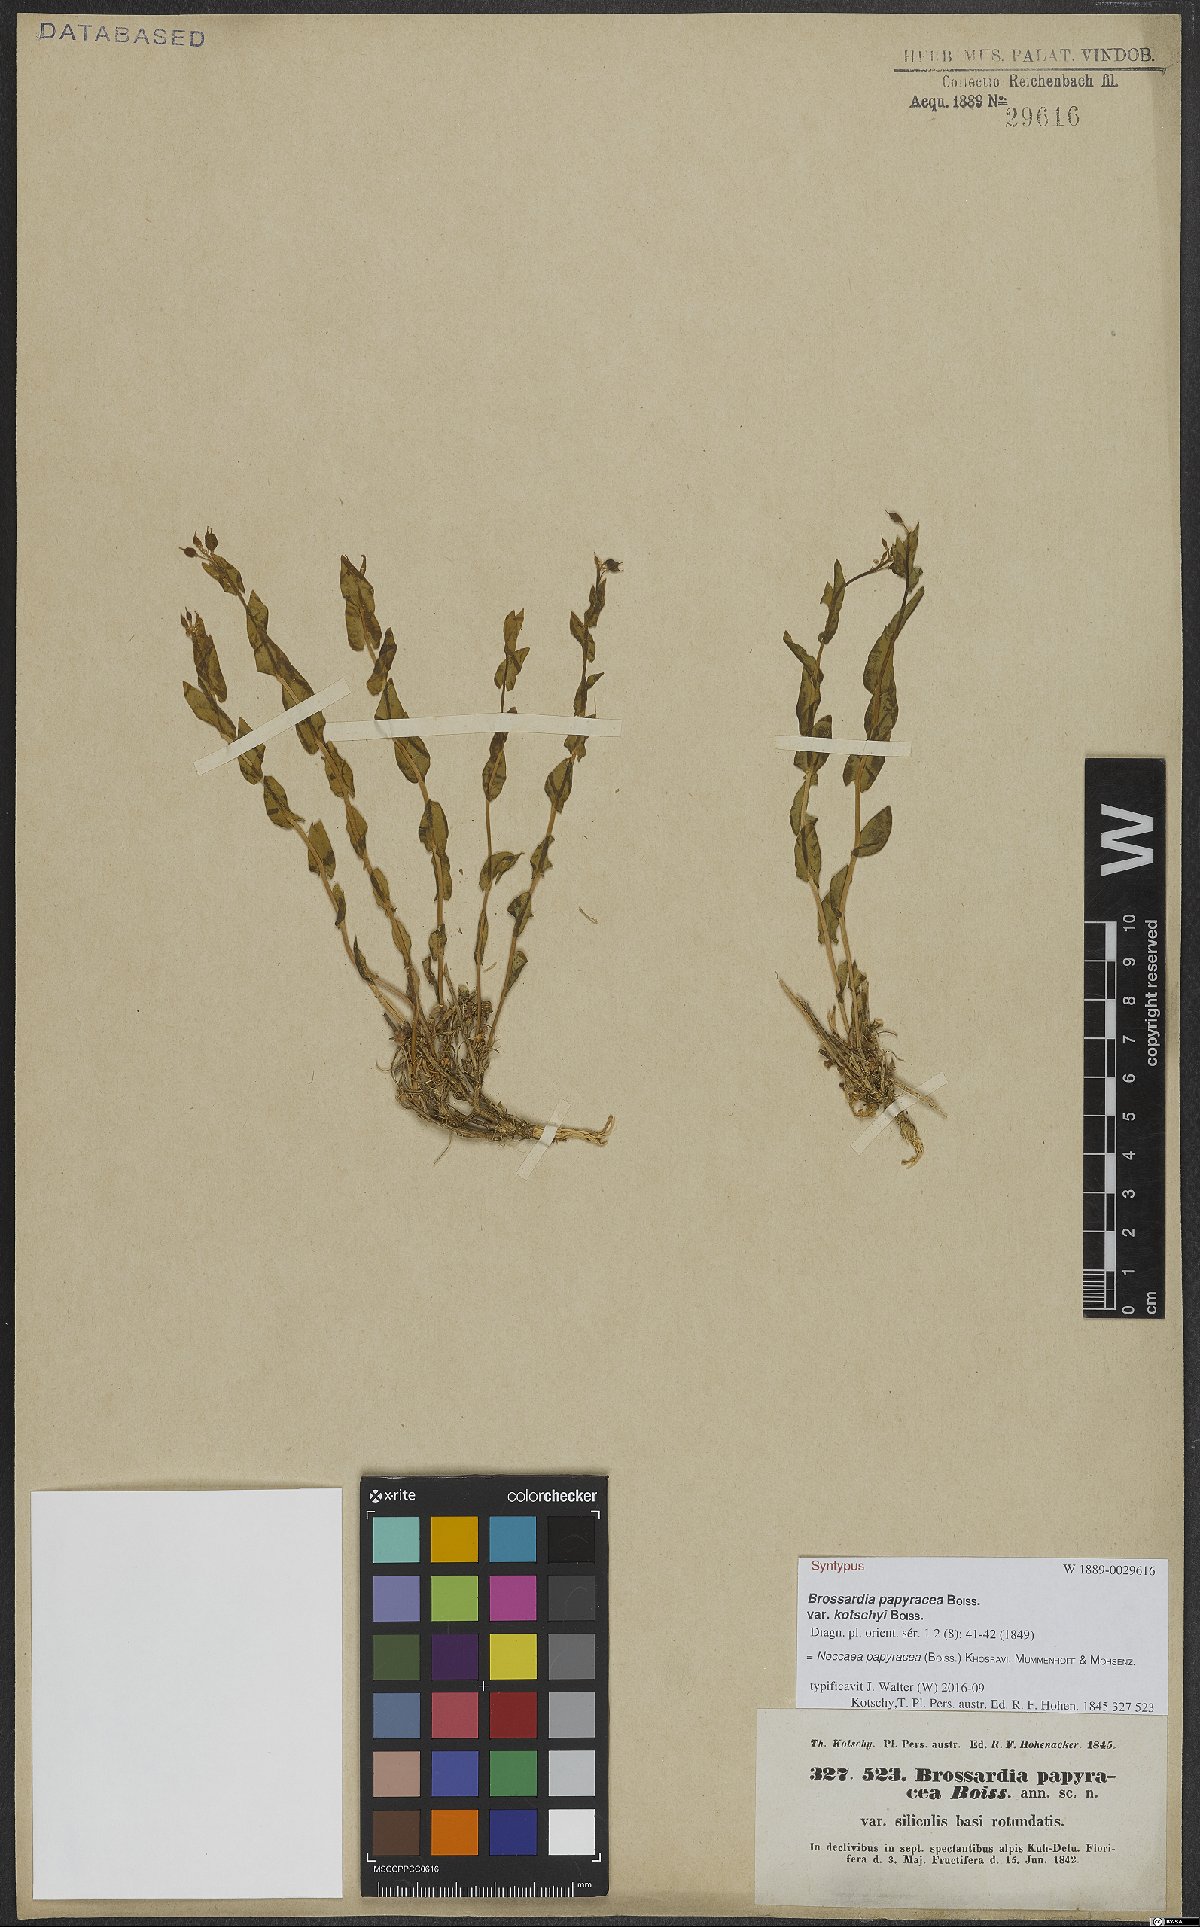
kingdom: Plantae
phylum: Tracheophyta
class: Magnoliopsida
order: Brassicales
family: Brassicaceae
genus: Noccaea
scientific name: Noccaea papyracea
